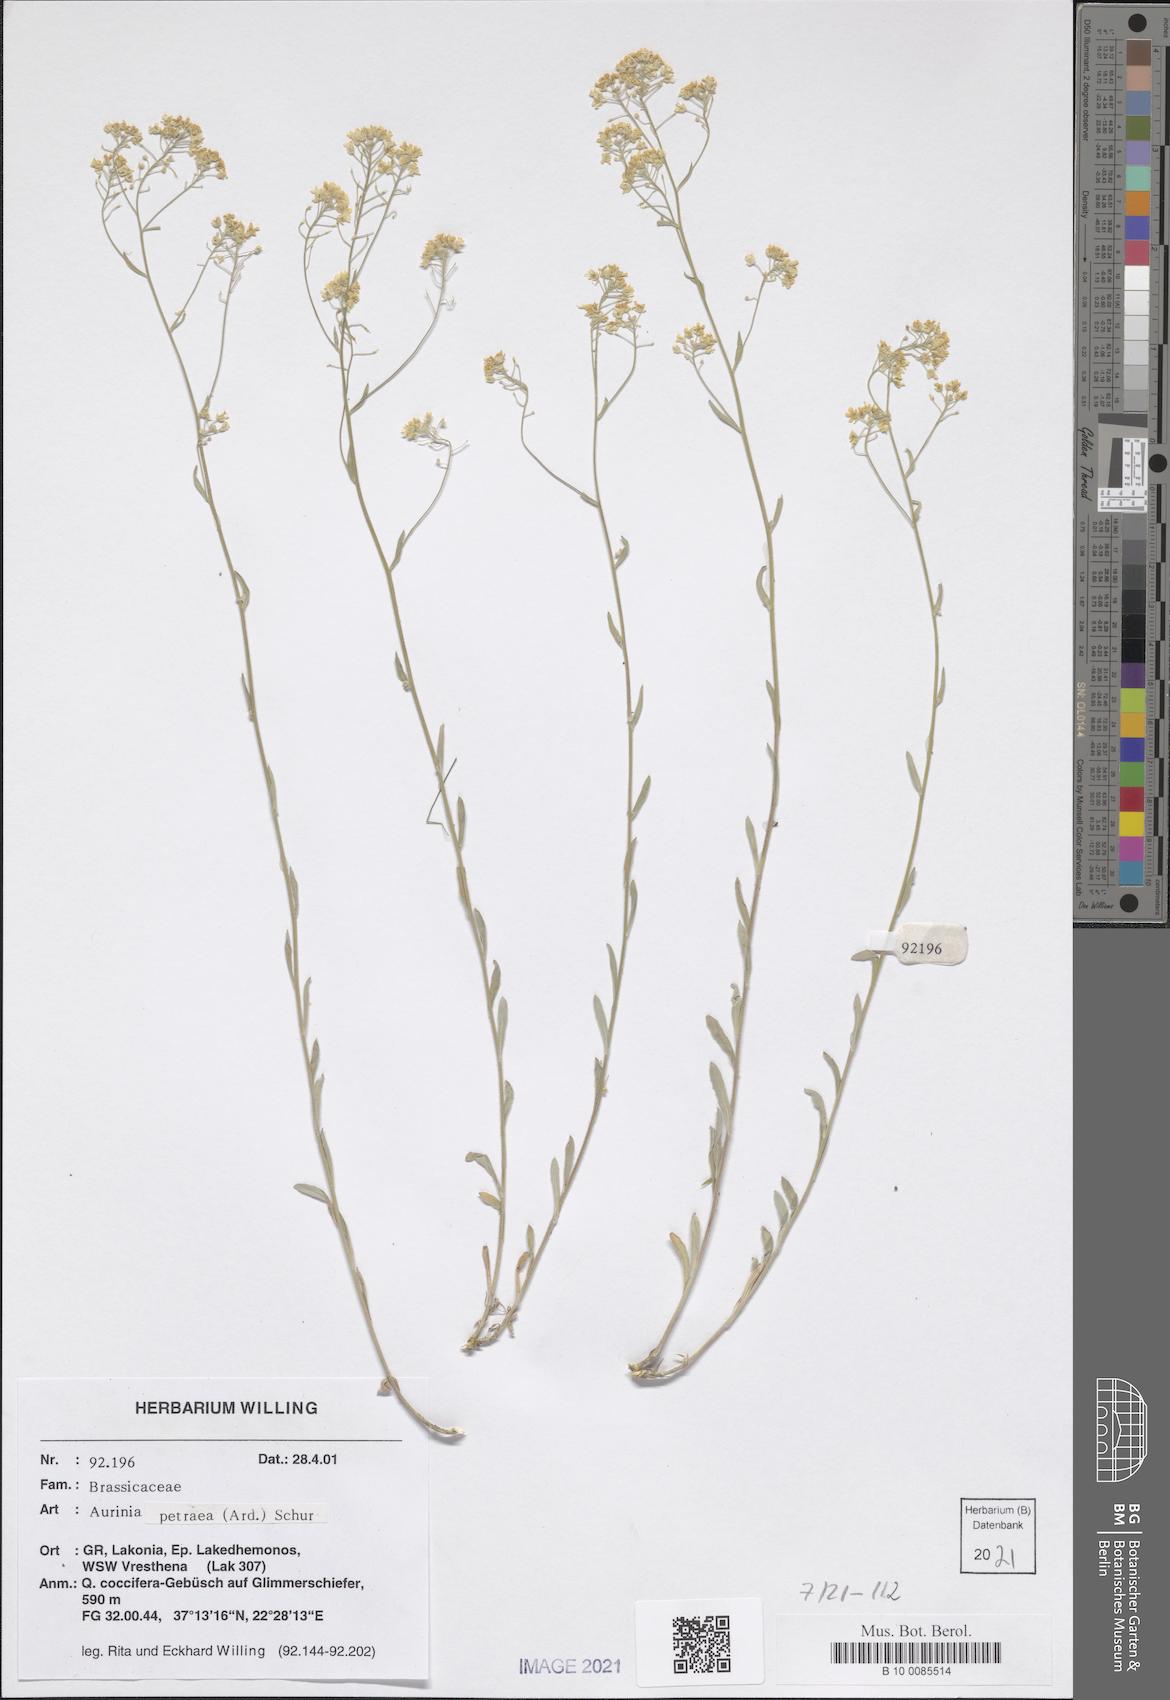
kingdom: Plantae
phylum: Tracheophyta
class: Magnoliopsida
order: Brassicales
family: Brassicaceae
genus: Aurinia
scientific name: Aurinia petraea
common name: Goldentuft
